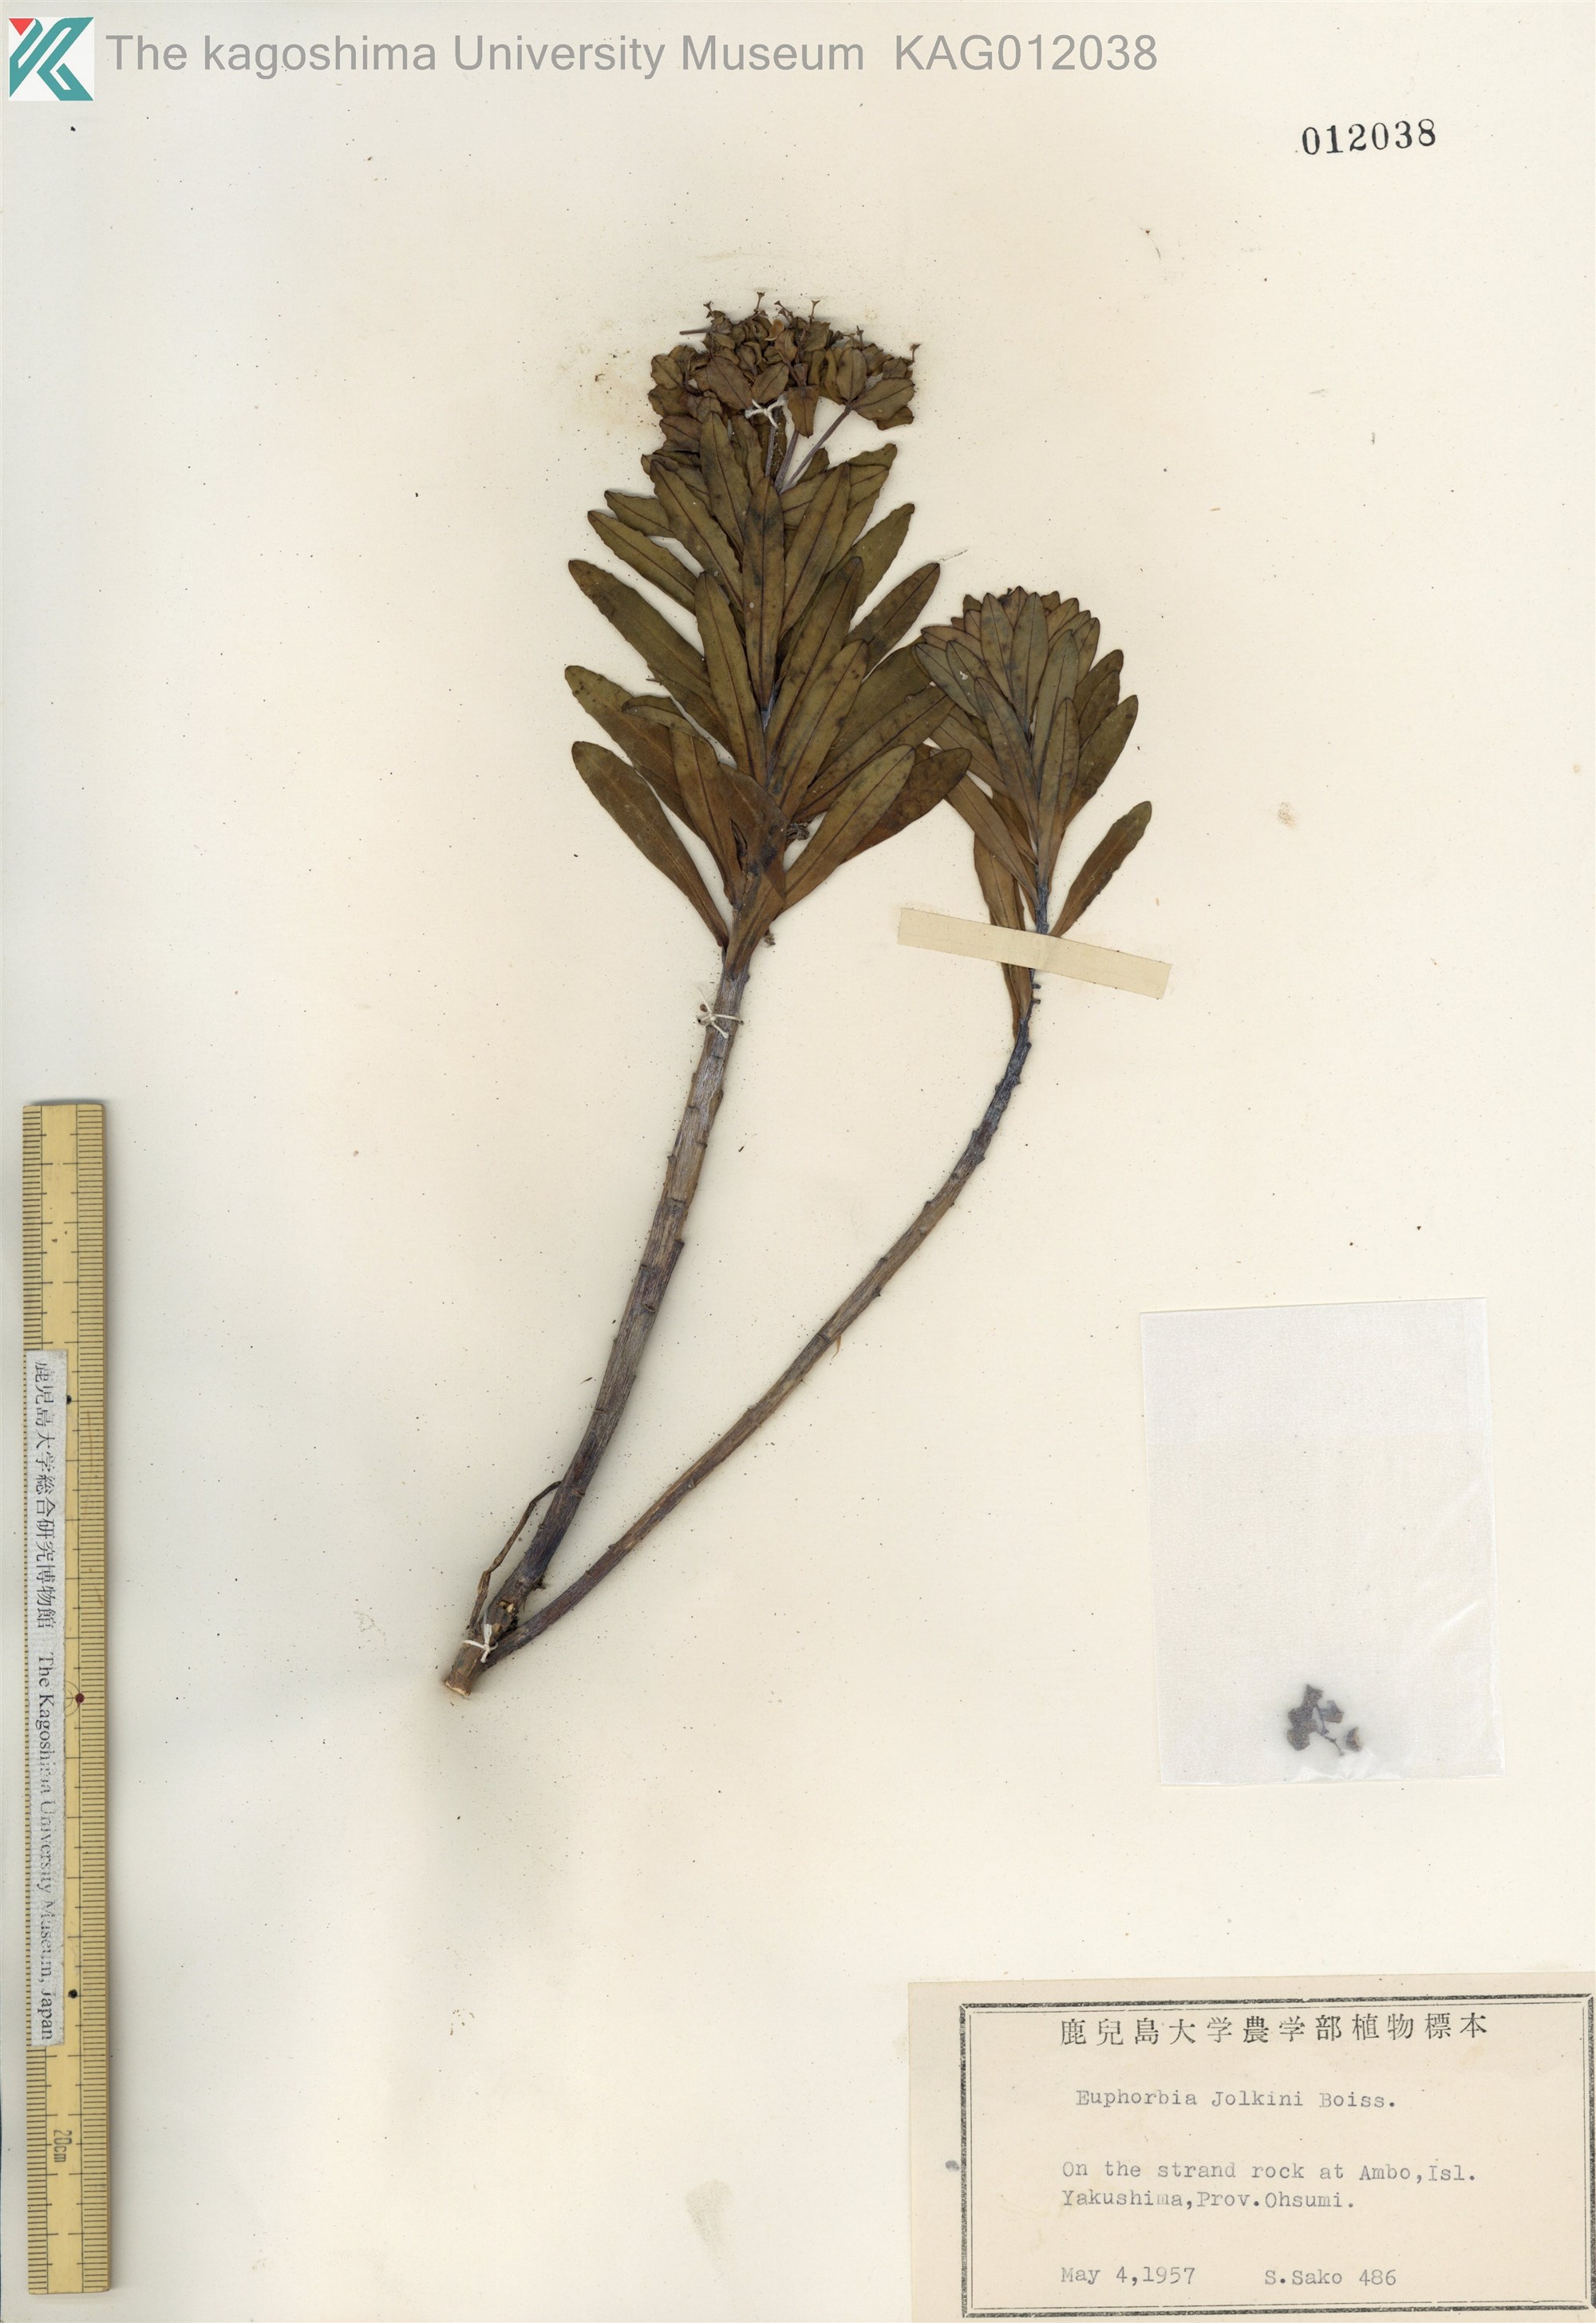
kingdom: Plantae
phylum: Tracheophyta
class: Magnoliopsida
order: Malpighiales
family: Euphorbiaceae
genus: Euphorbia
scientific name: Euphorbia jolkinii
